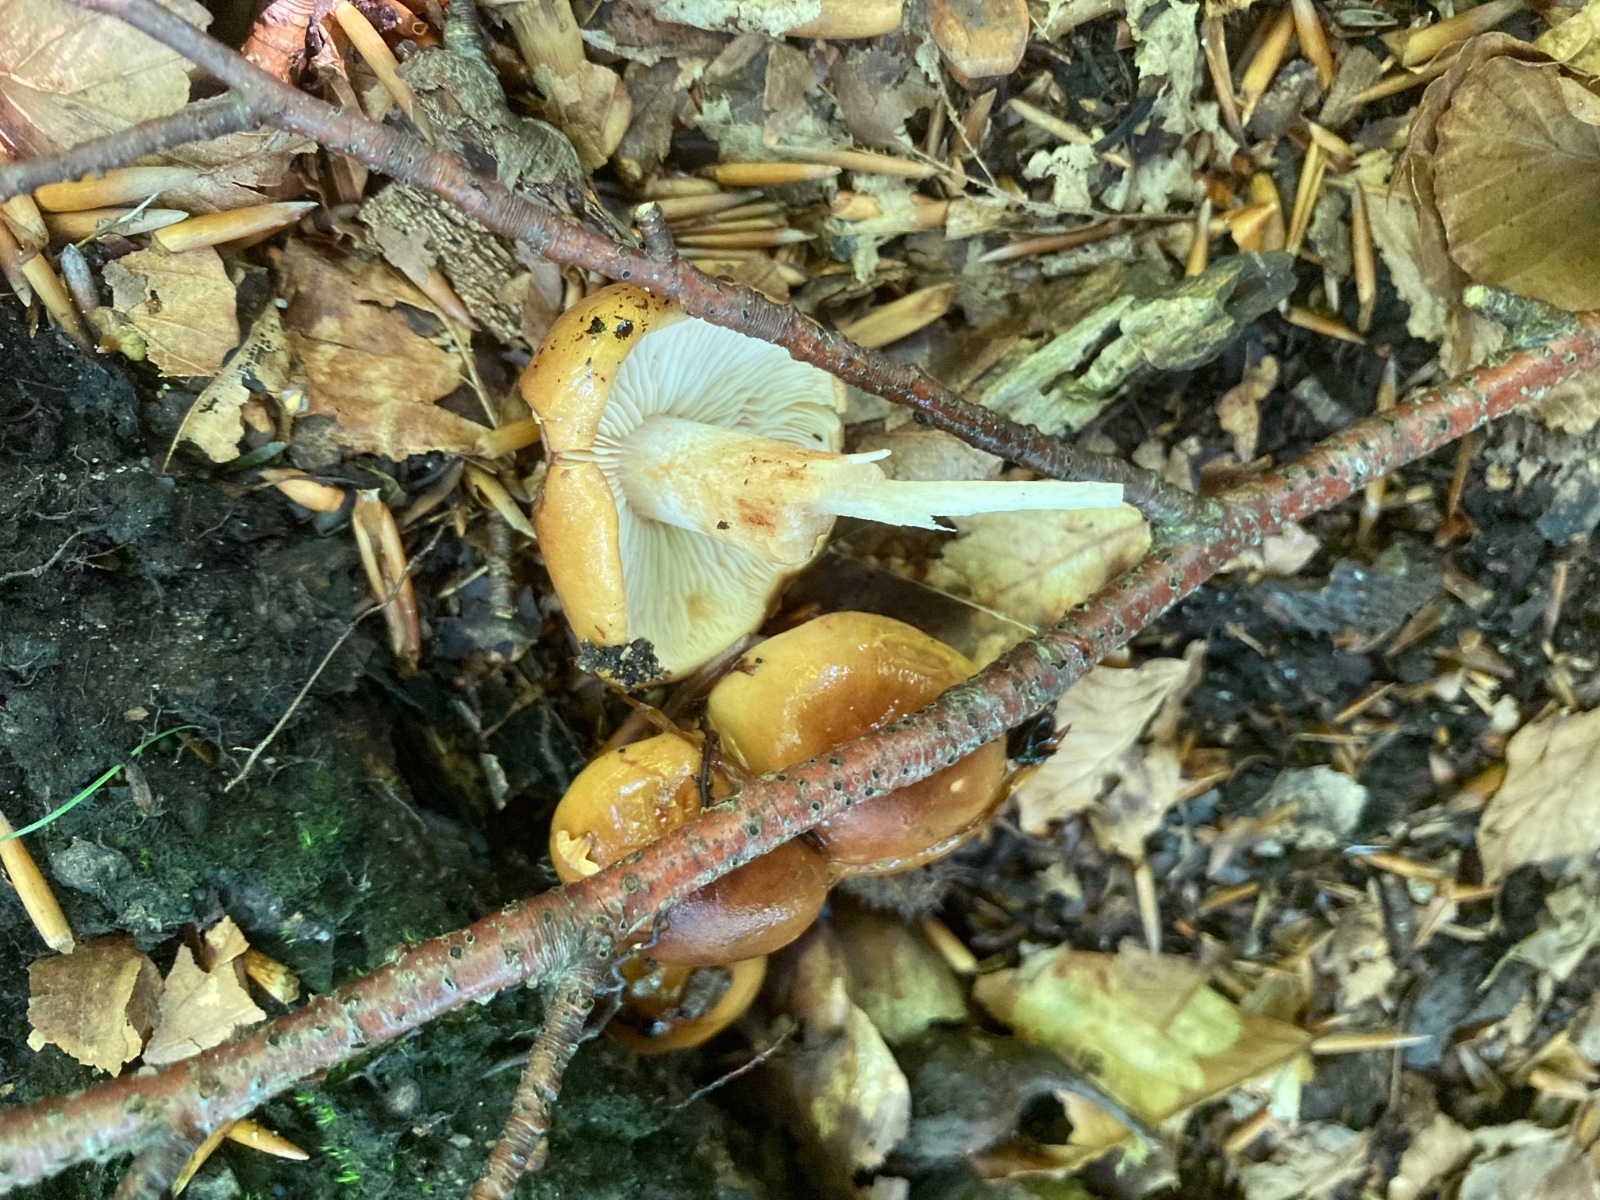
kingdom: Fungi
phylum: Basidiomycota
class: Agaricomycetes
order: Agaricales
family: Tricholomataceae
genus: Tricholoma
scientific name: Tricholoma ustale
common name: sveden ridderhat
